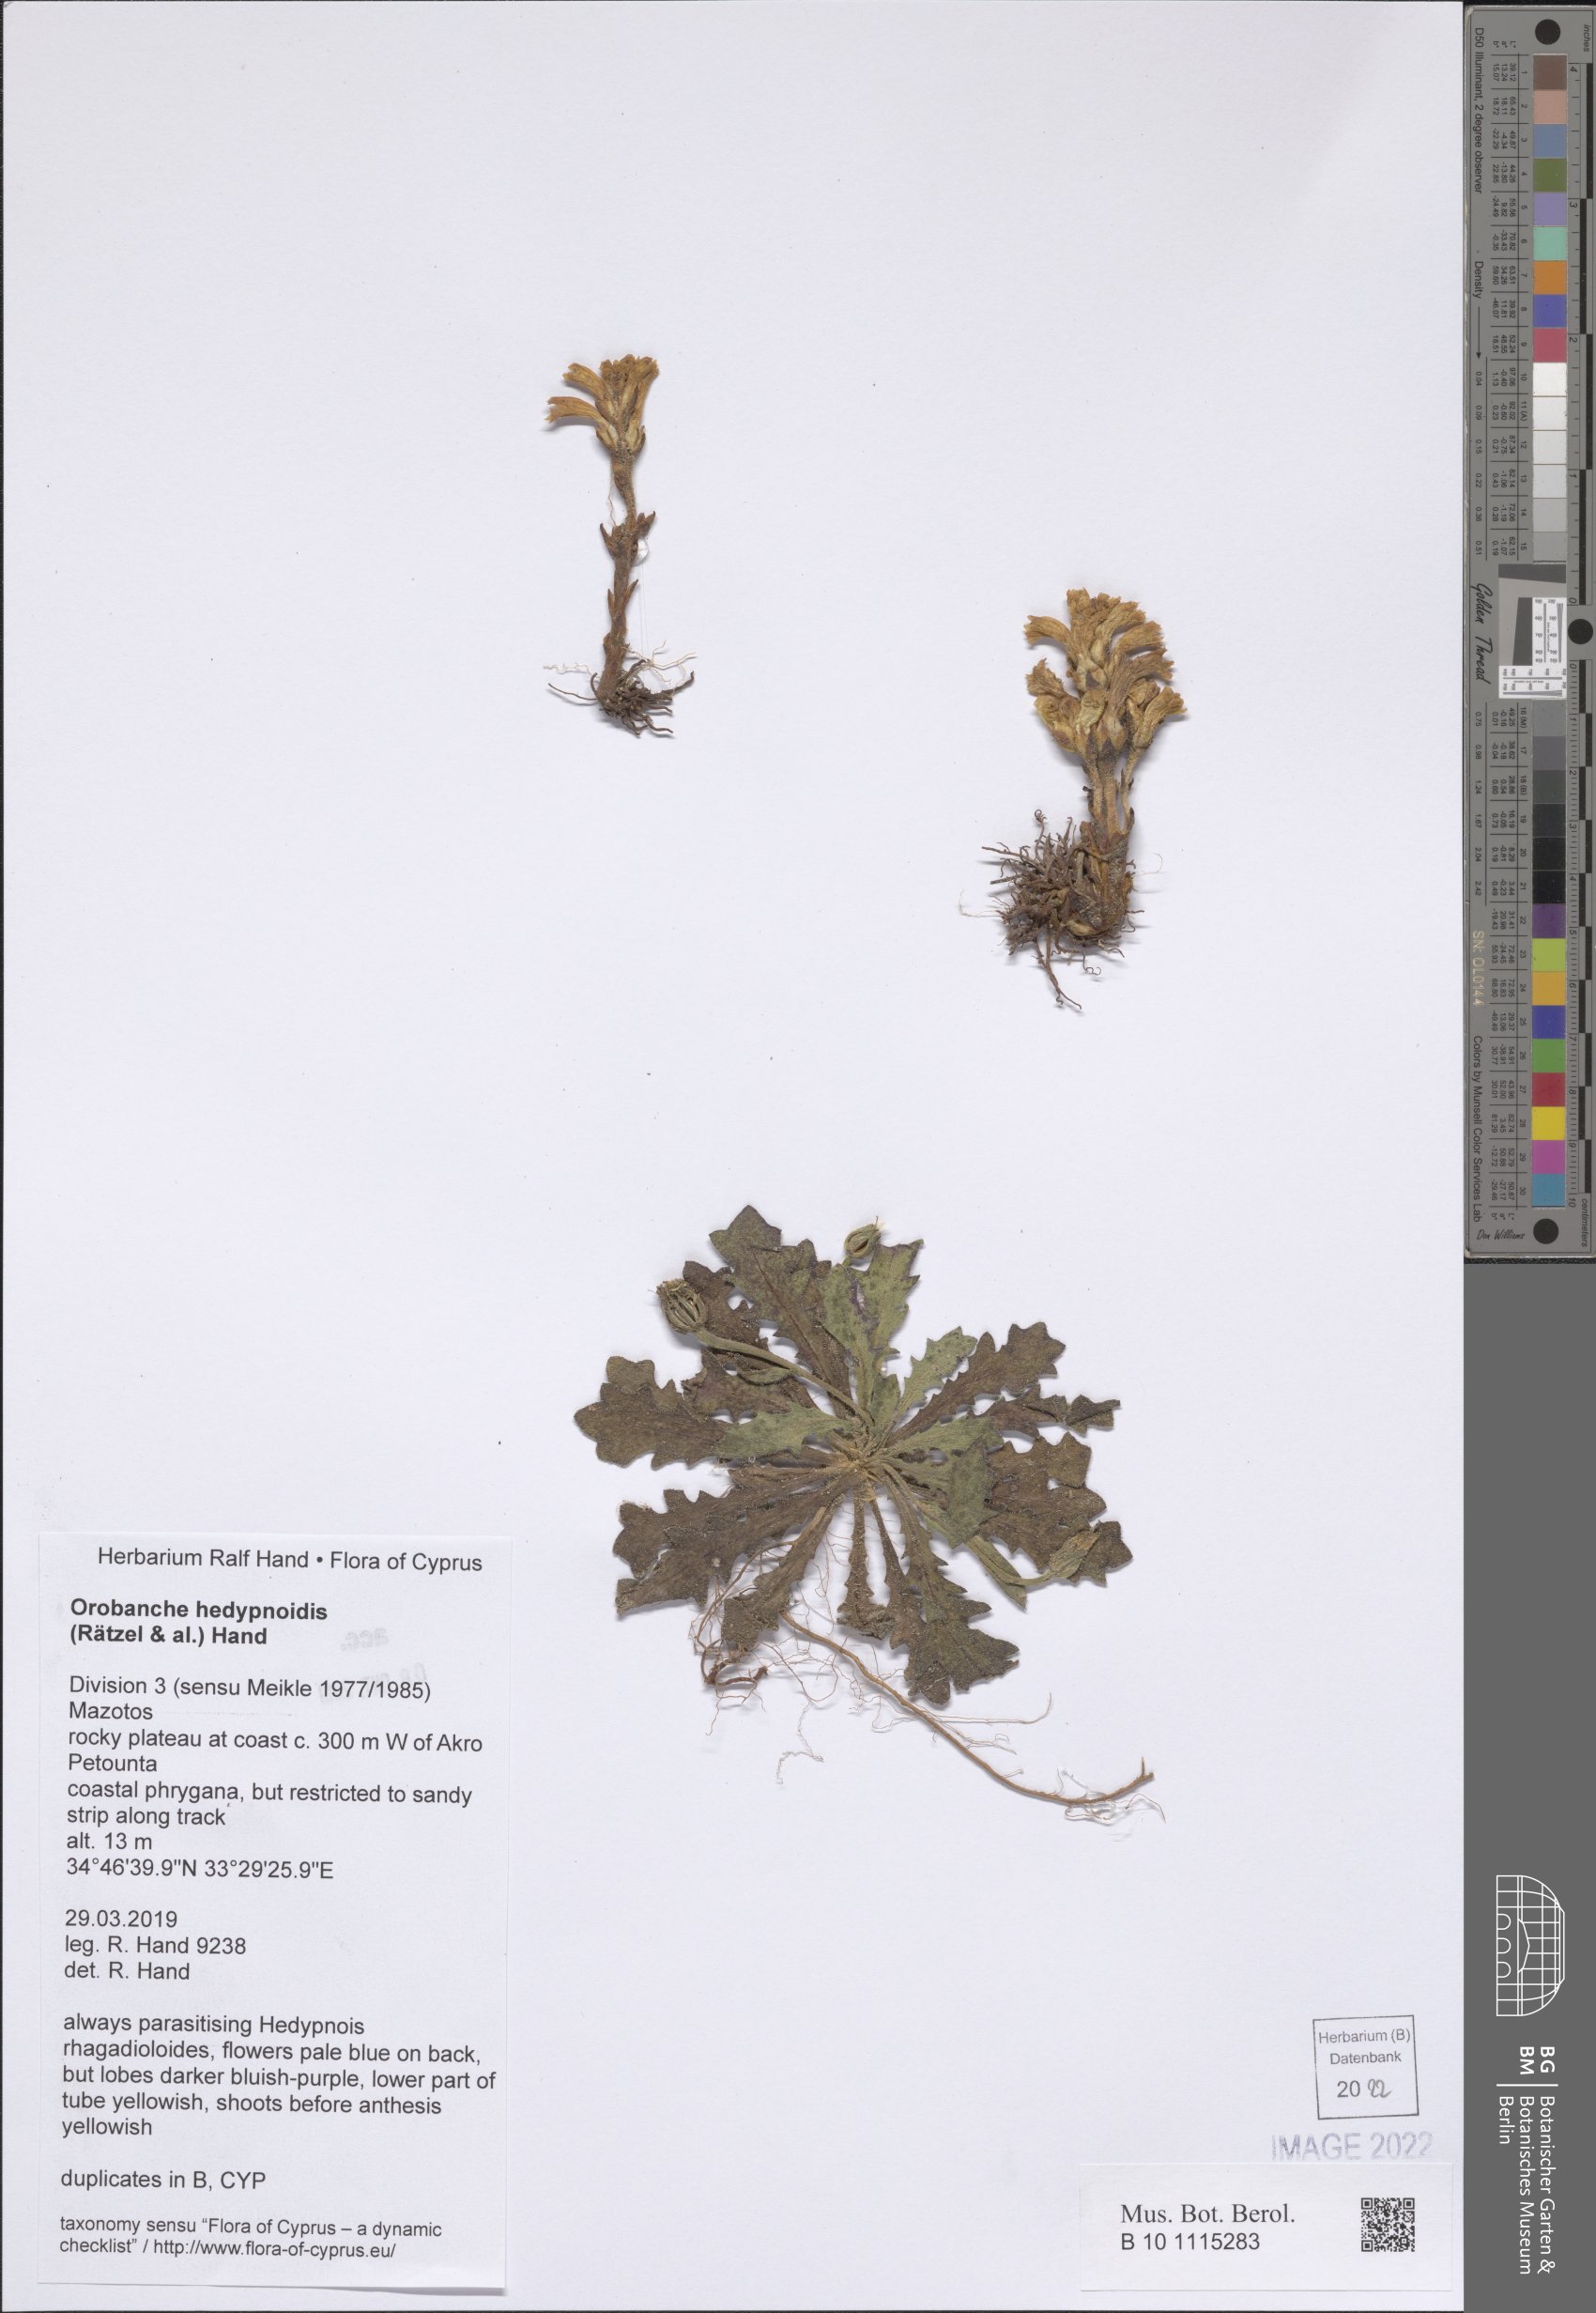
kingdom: Plantae
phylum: Tracheophyta
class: Magnoliopsida
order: Lamiales
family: Orobanchaceae
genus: Phelipanche
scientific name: Phelipanche hedypnoidis
